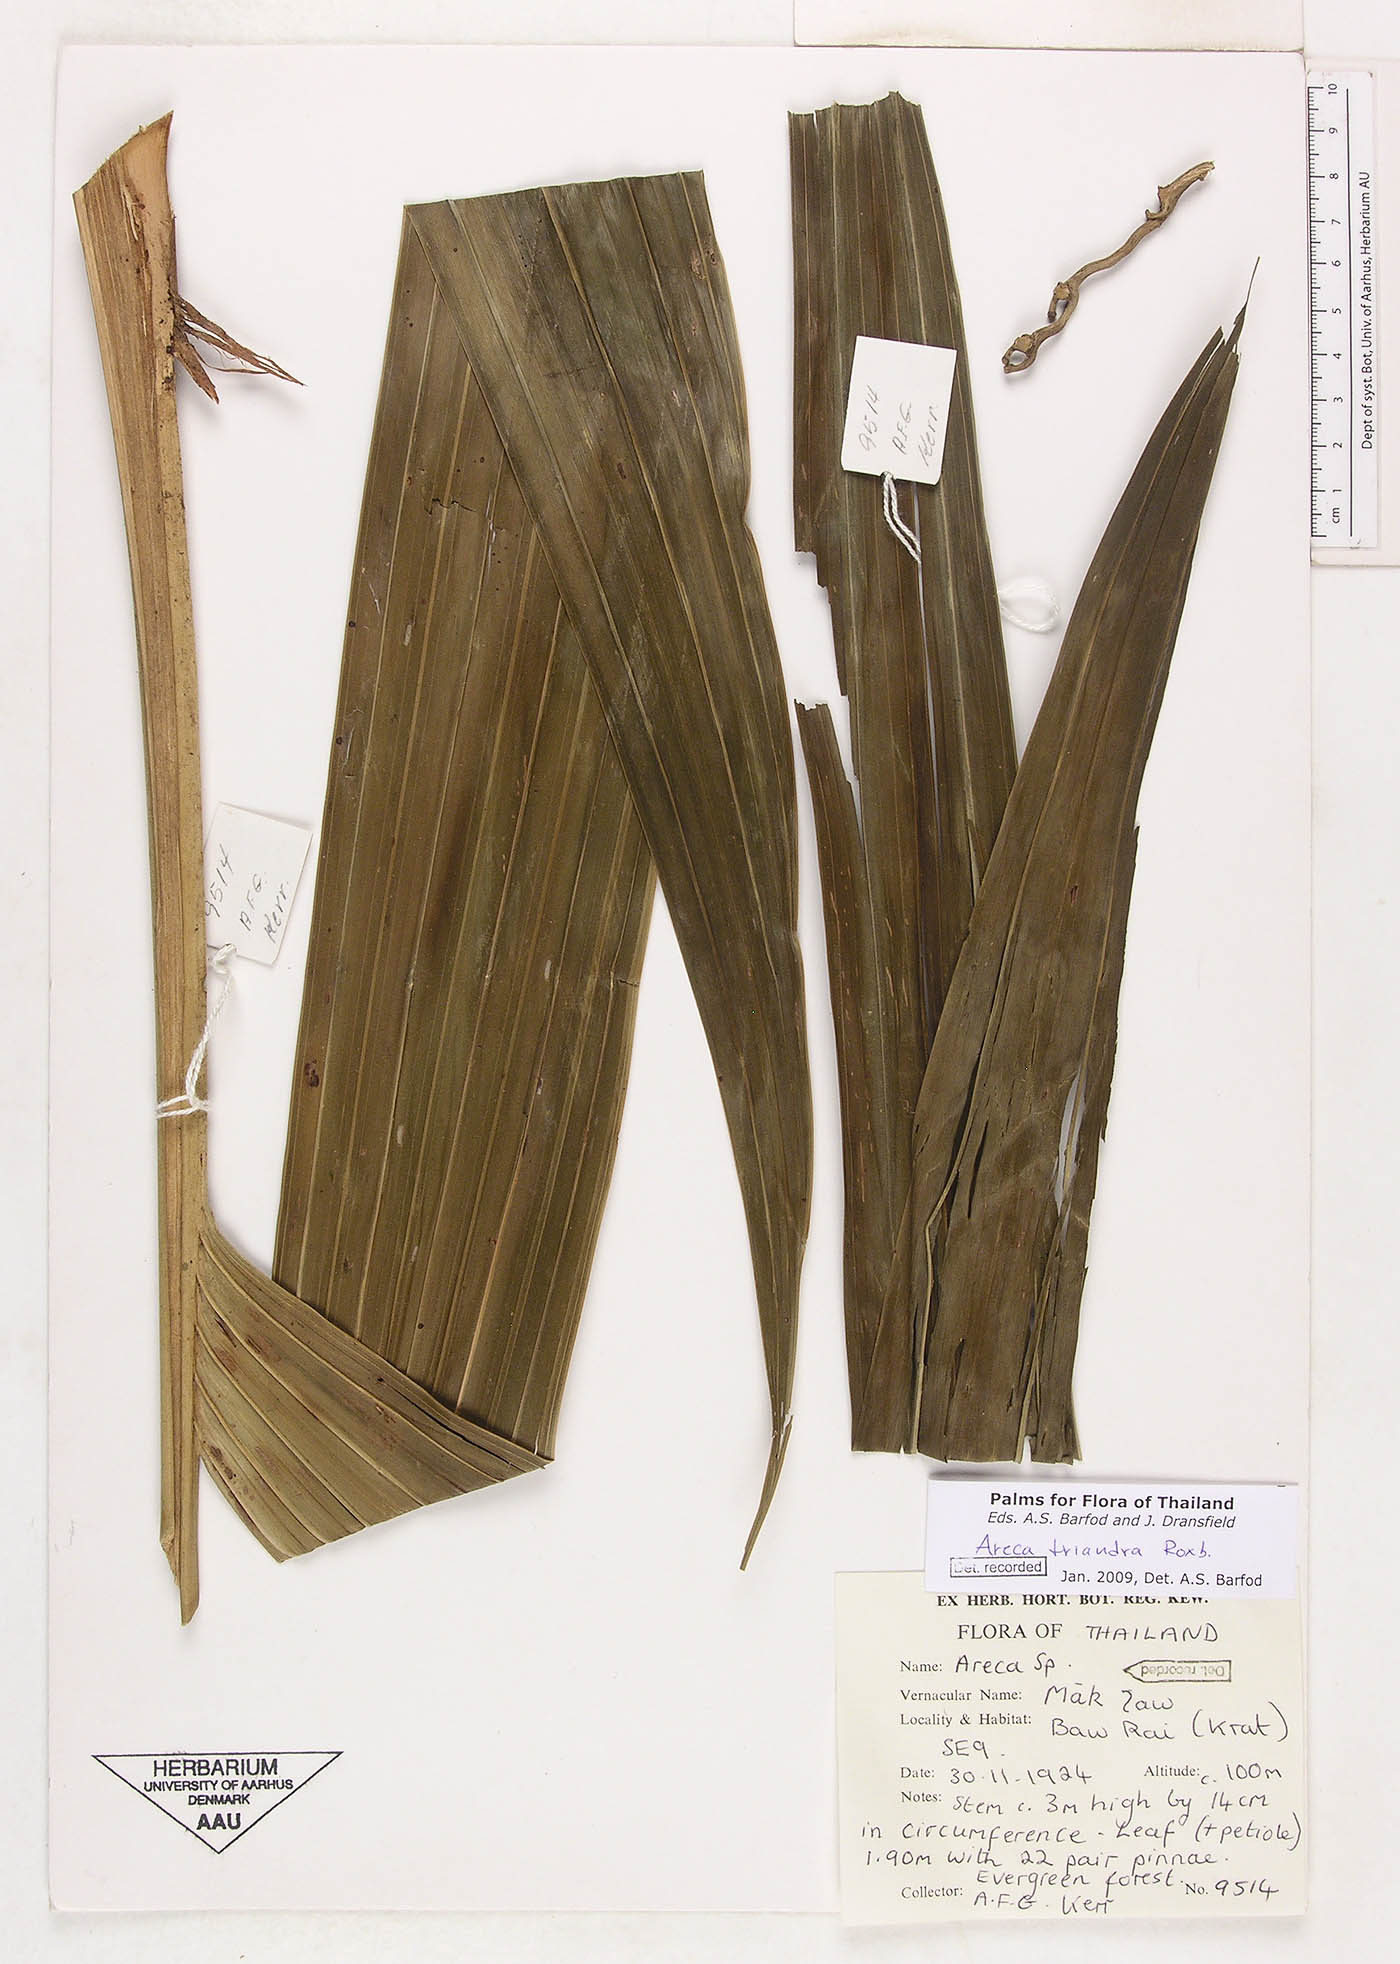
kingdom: Plantae
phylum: Tracheophyta
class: Liliopsida
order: Arecales
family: Arecaceae
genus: Areca
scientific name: Areca triandra
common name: Australian areca palm
